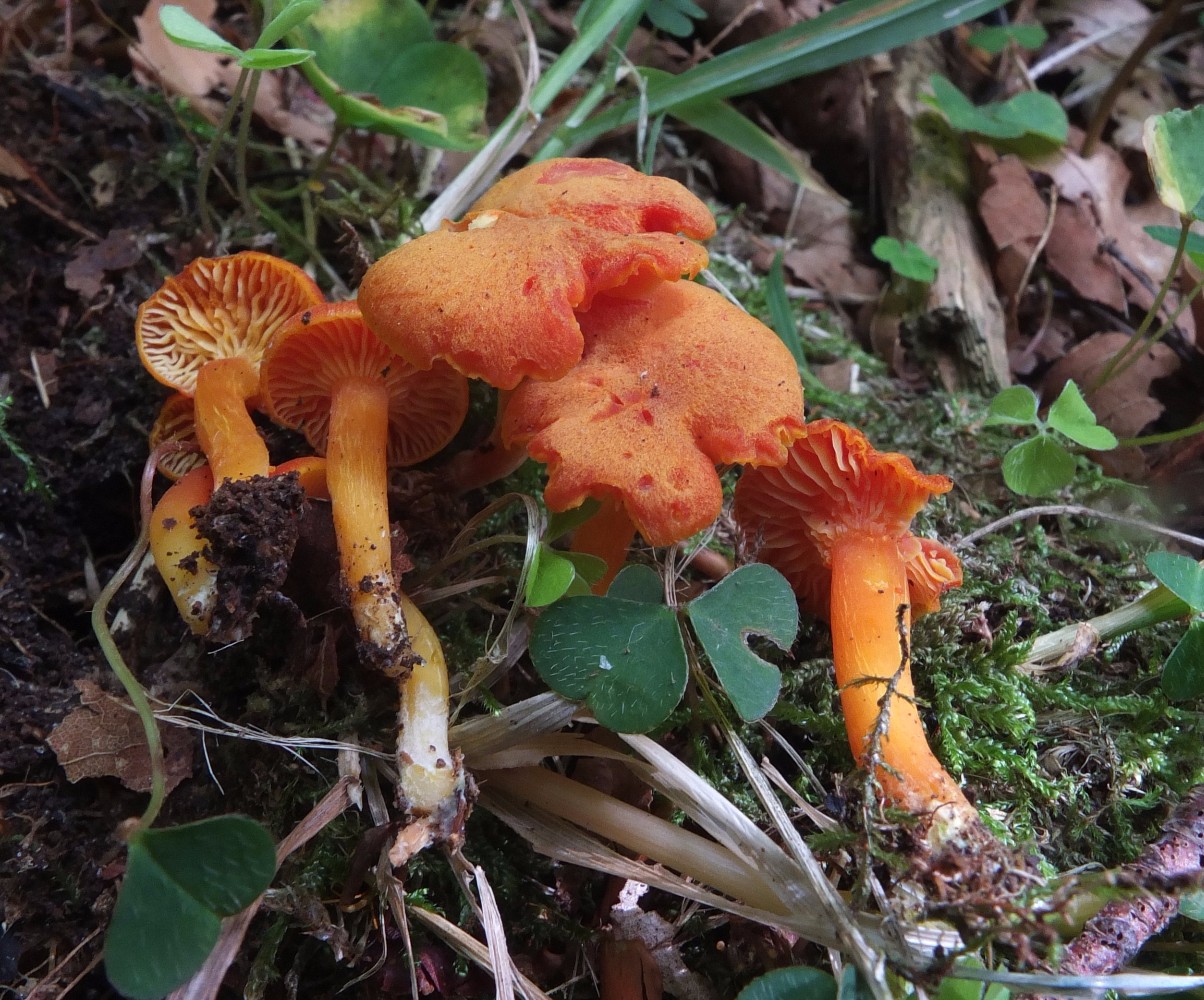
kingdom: Fungi
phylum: Basidiomycota
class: Agaricomycetes
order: Agaricales
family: Hygrophoraceae
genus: Hygrocybe
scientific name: Hygrocybe miniata
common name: mønje-vokshat
